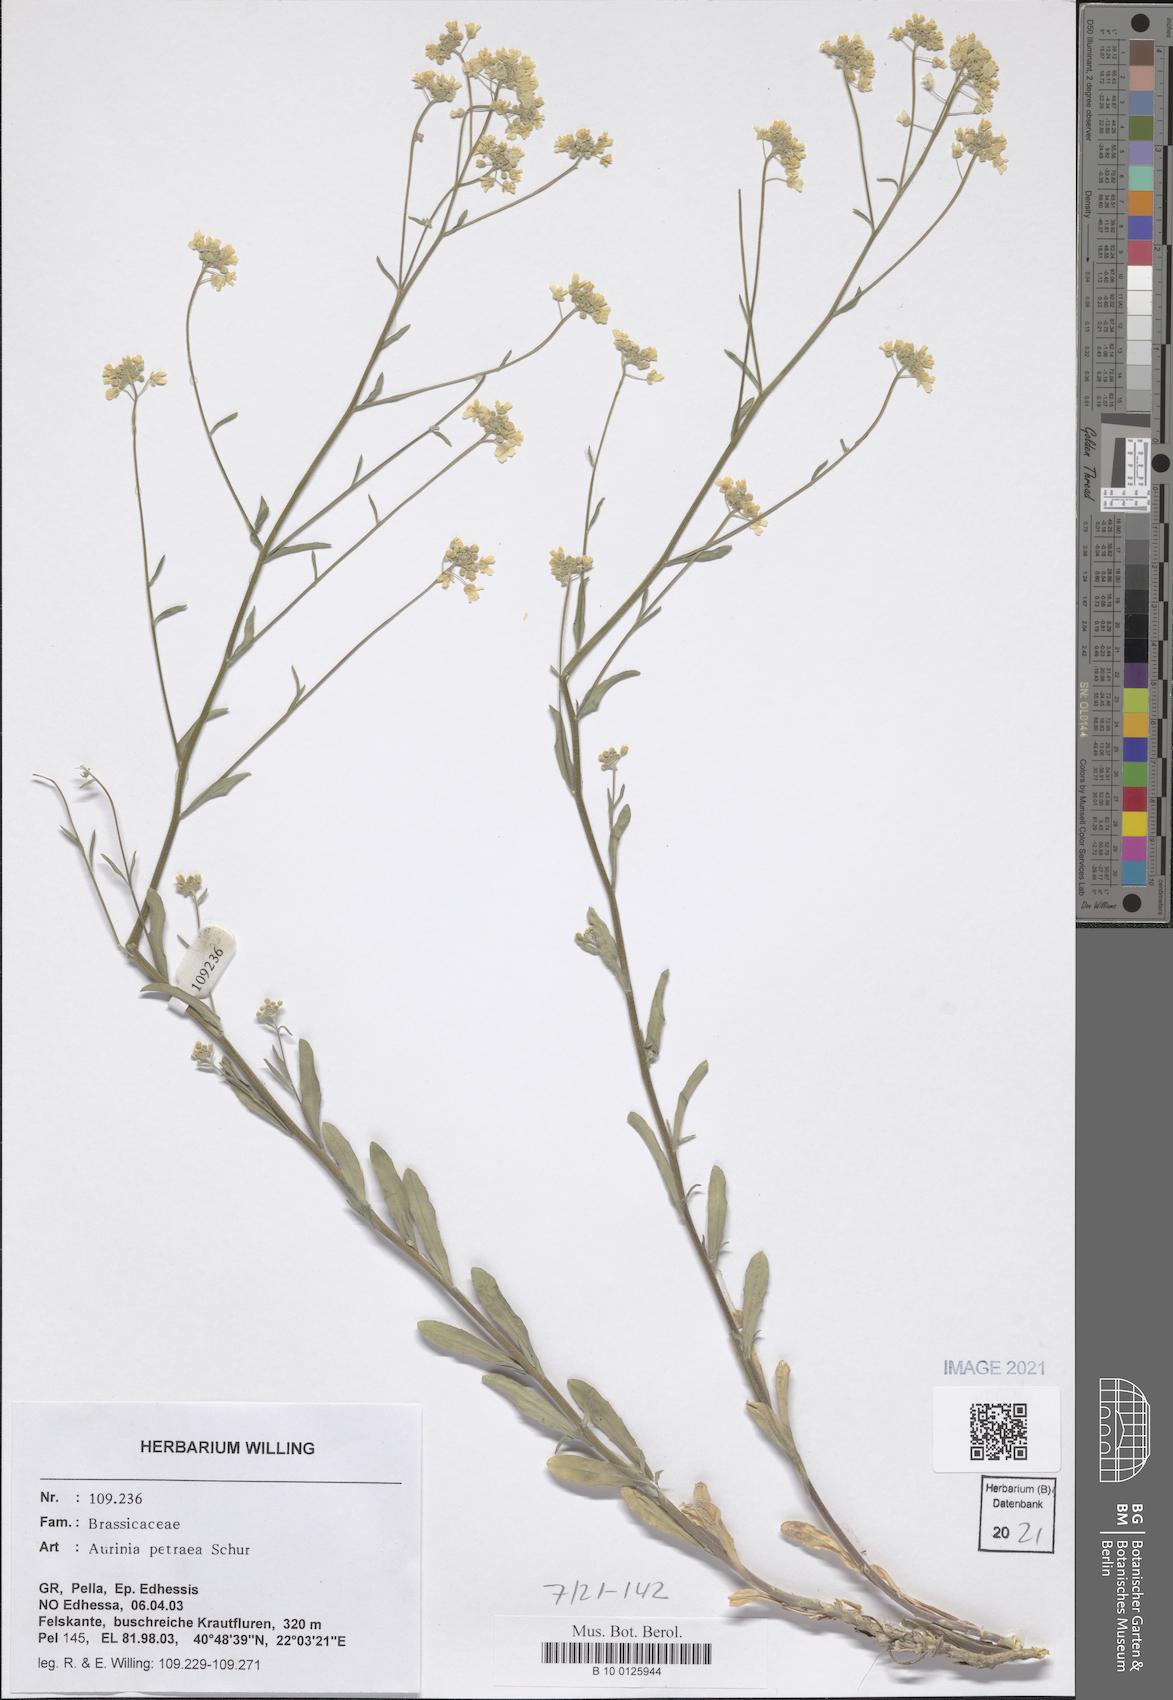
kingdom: Plantae
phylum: Tracheophyta
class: Magnoliopsida
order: Brassicales
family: Brassicaceae
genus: Aurinia
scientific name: Aurinia petraea
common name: Goldentuft
